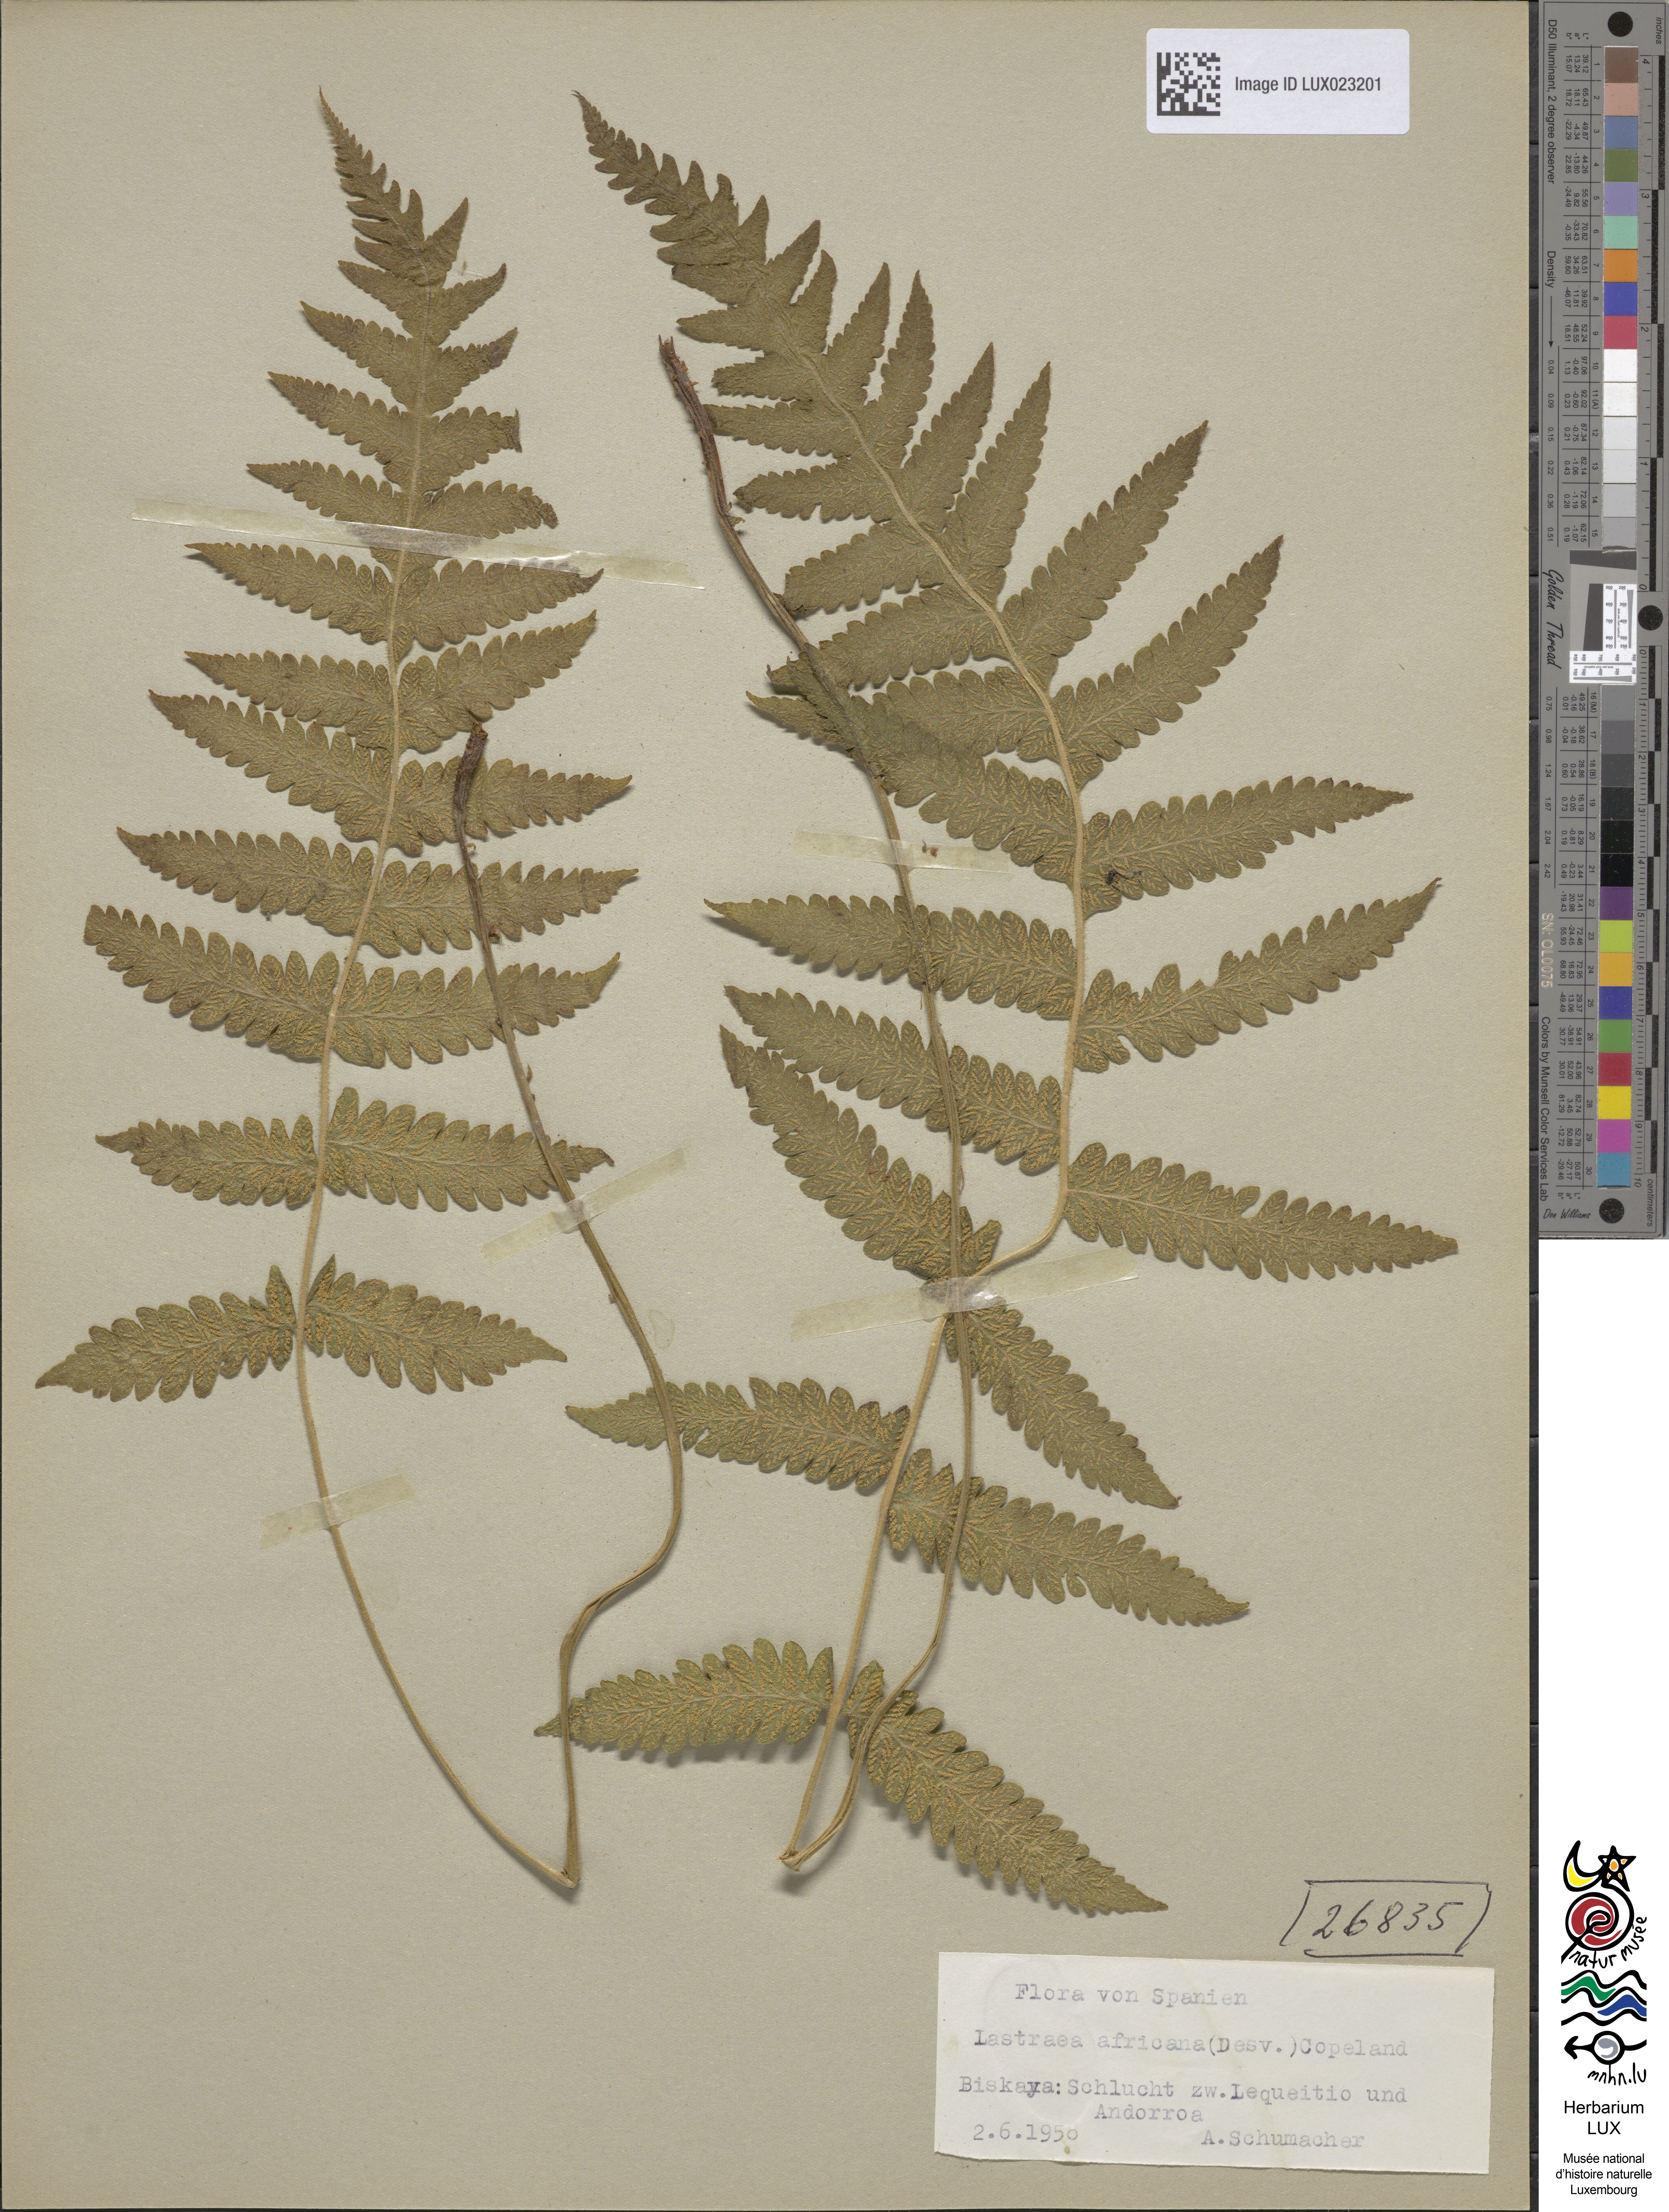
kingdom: Plantae
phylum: Tracheophyta
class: Polypodiopsida
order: Polypodiales
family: Thelypteridaceae
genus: Leptogramma
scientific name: Leptogramma pozoi
